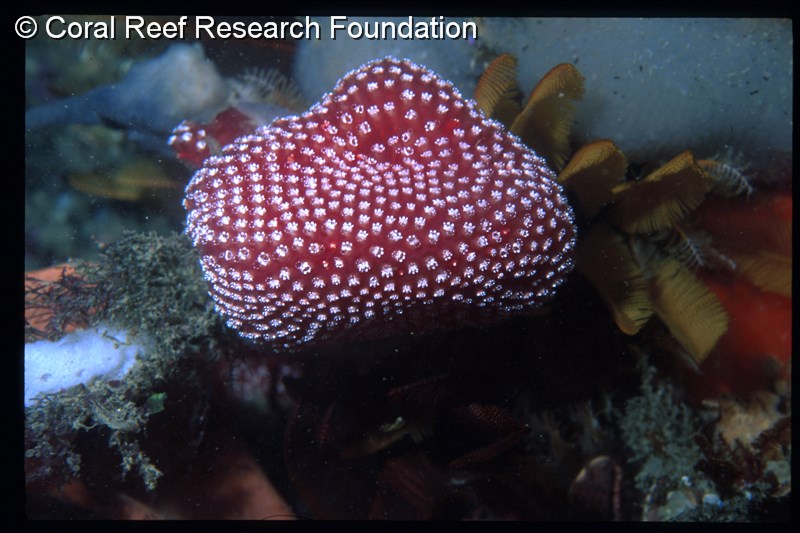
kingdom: Animalia
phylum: Chordata
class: Ascidiacea
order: Aplousobranchia
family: Polycitoridae
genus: Eudistoma
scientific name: Eudistoma
